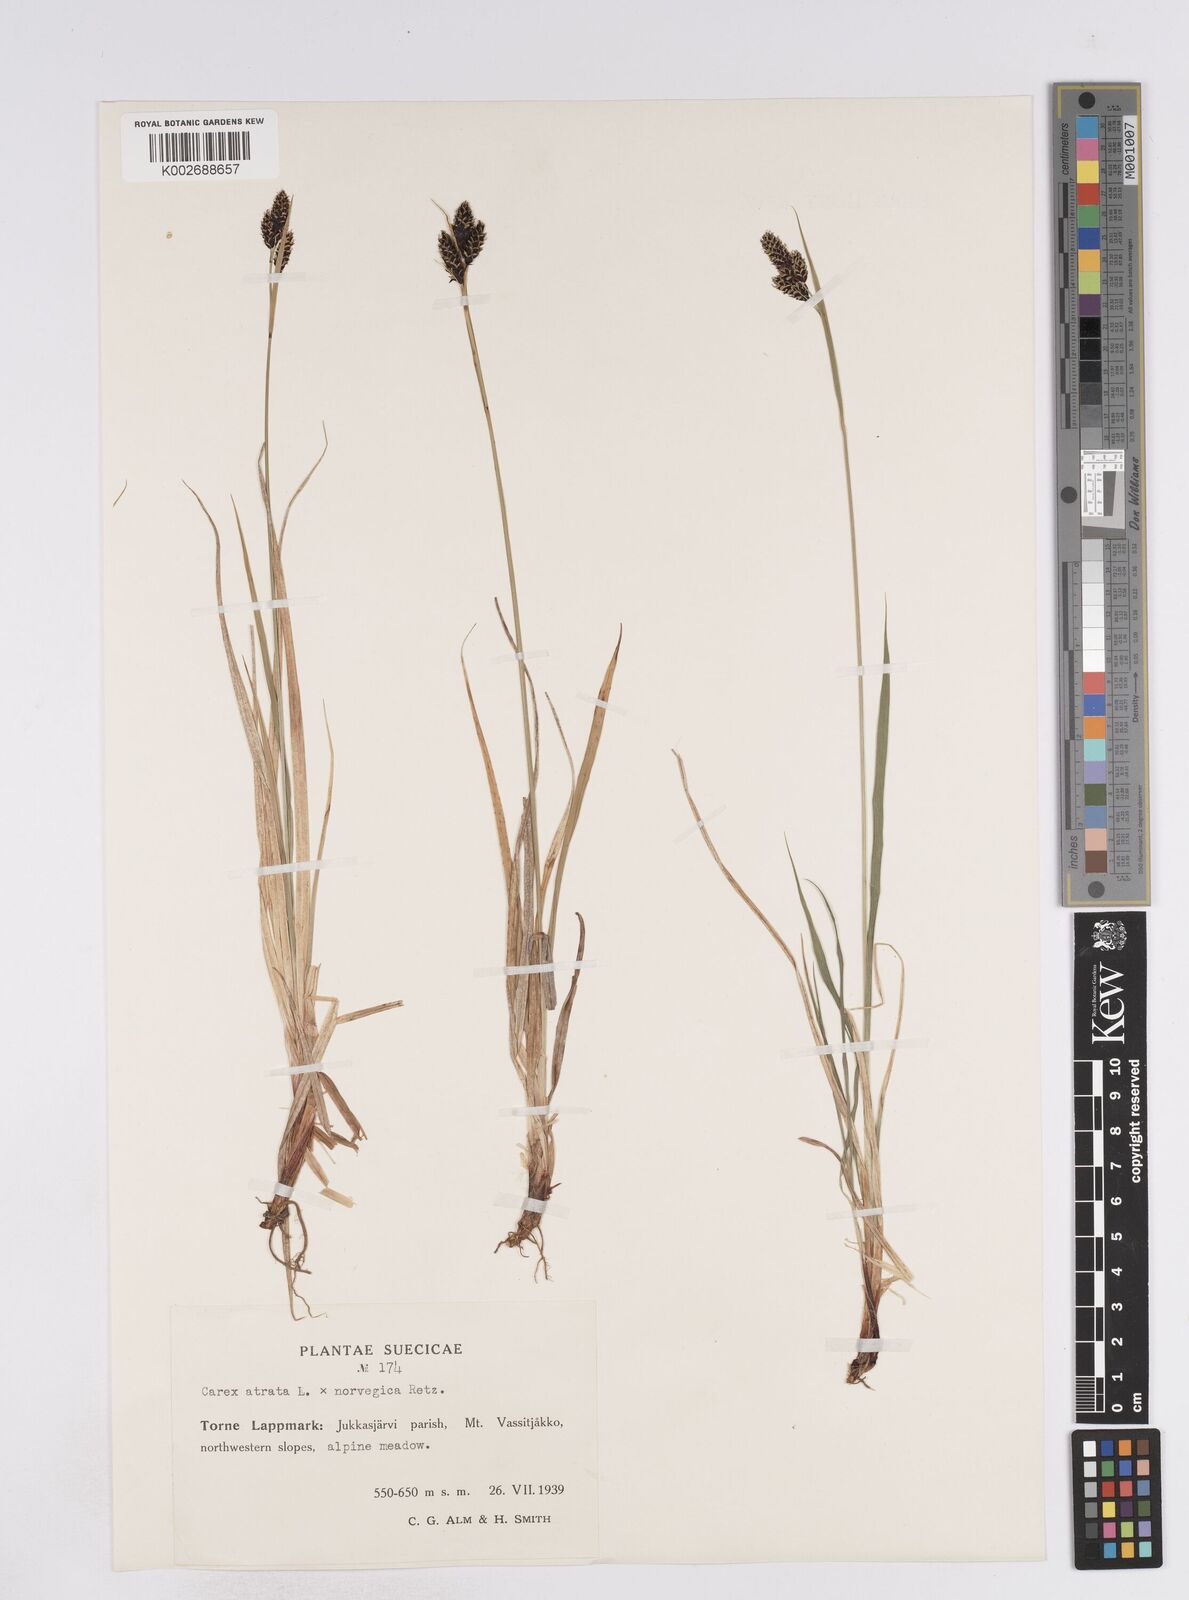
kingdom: Plantae
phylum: Tracheophyta
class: Liliopsida
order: Poales
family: Cyperaceae
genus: Carex
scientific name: Carex norvegica
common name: Close-headed alpine-sedge
